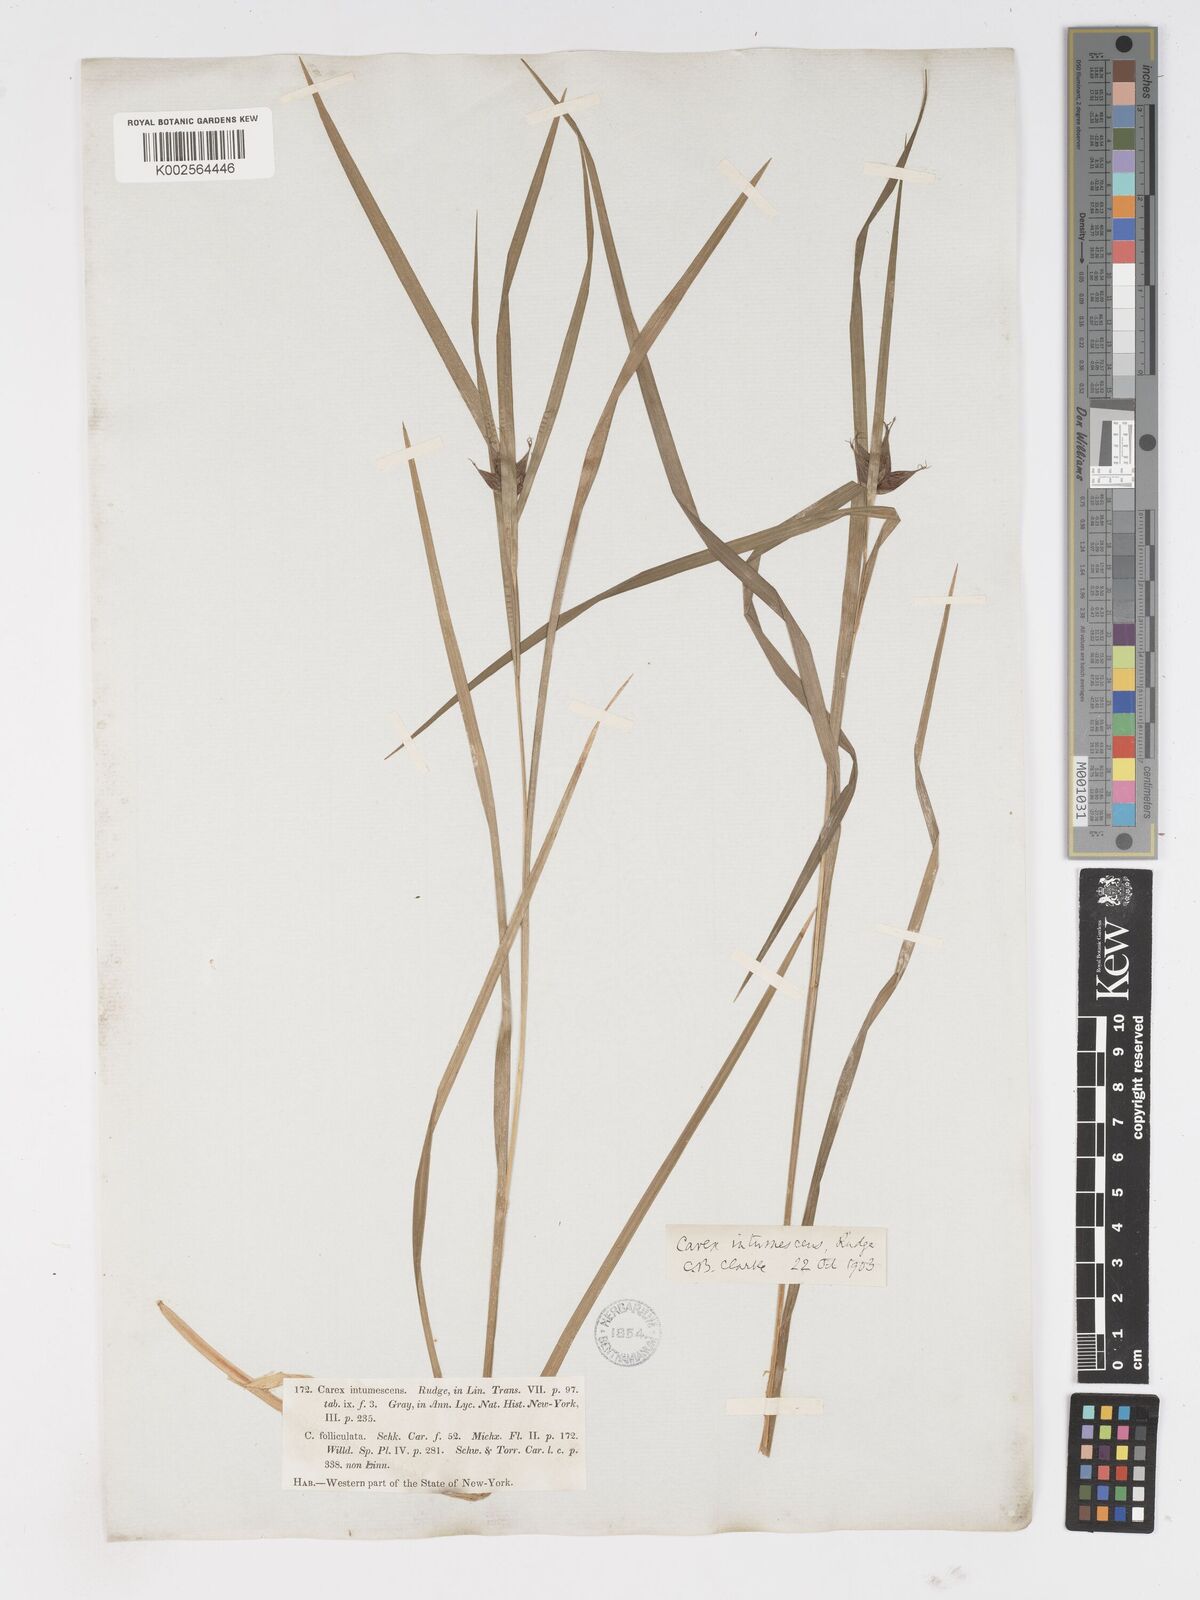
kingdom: Plantae
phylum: Tracheophyta
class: Liliopsida
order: Poales
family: Cyperaceae
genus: Carex
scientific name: Carex intumescens
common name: Greater bladder sedge
